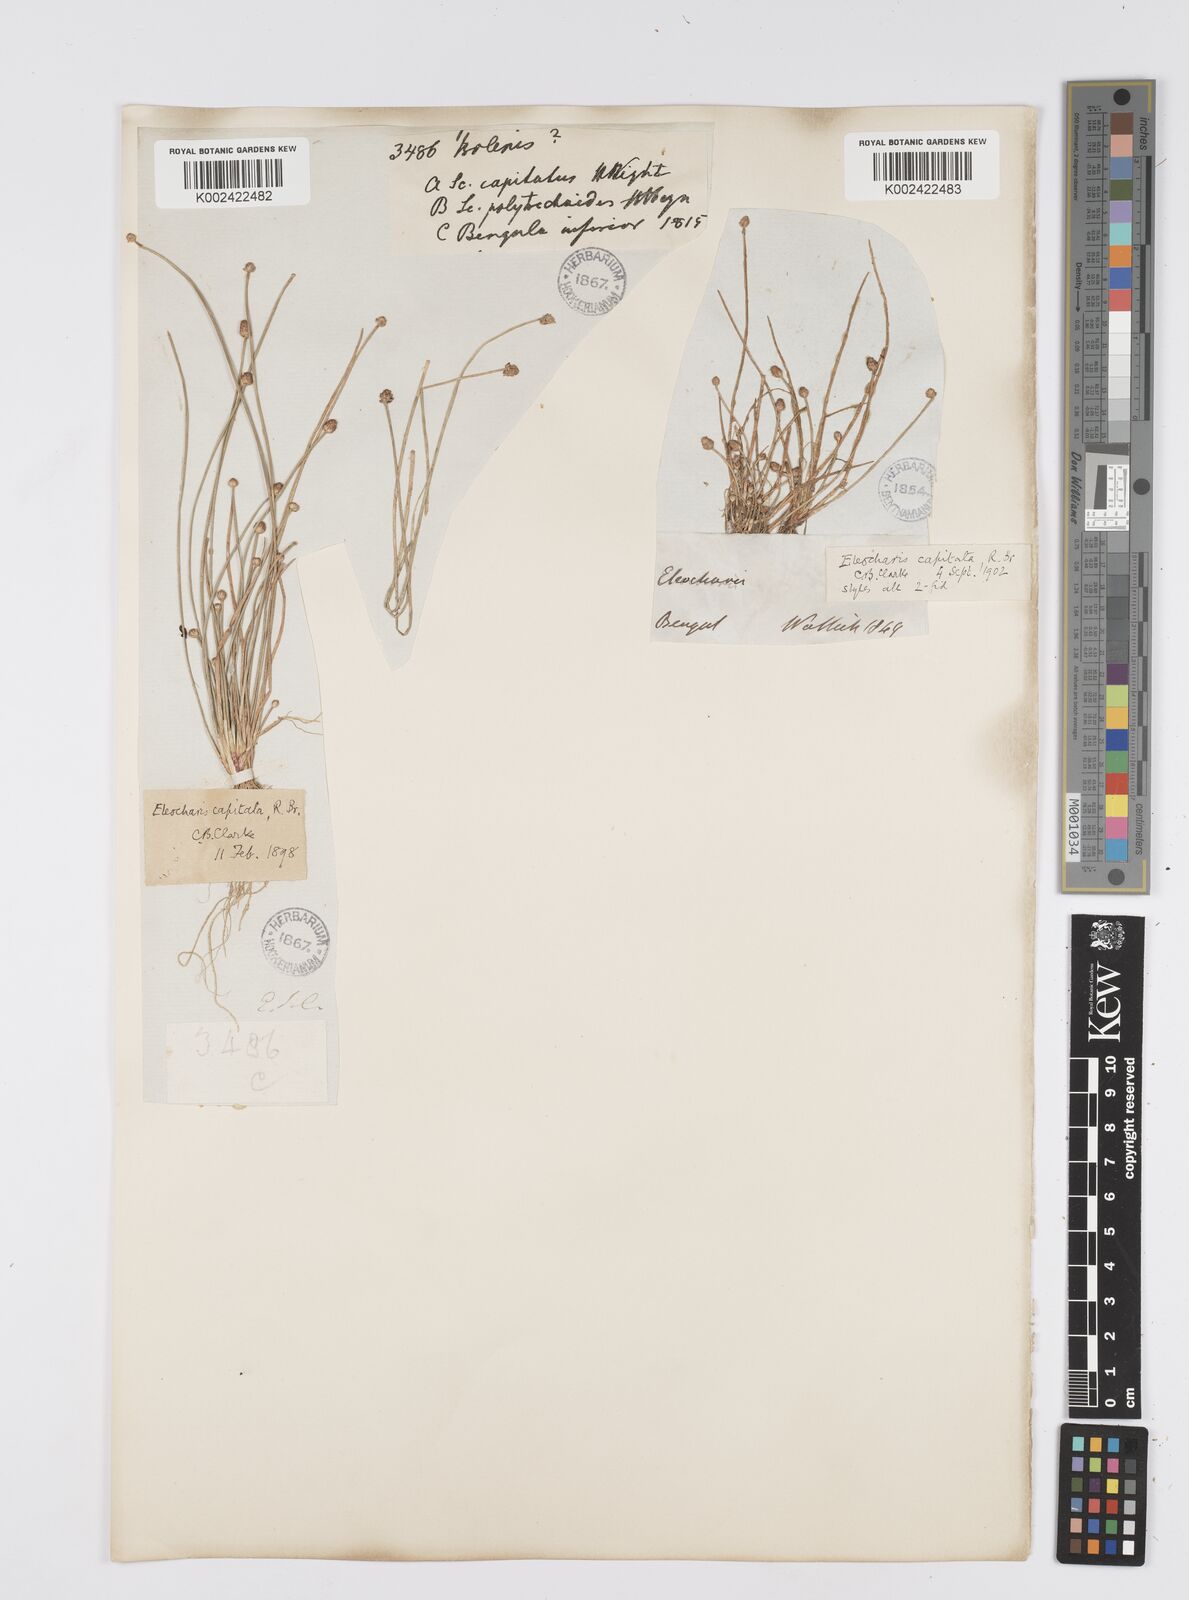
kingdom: Plantae
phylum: Tracheophyta
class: Liliopsida
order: Poales
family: Cyperaceae
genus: Eleocharis
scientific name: Eleocharis geniculata
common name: Canada spikesedge
